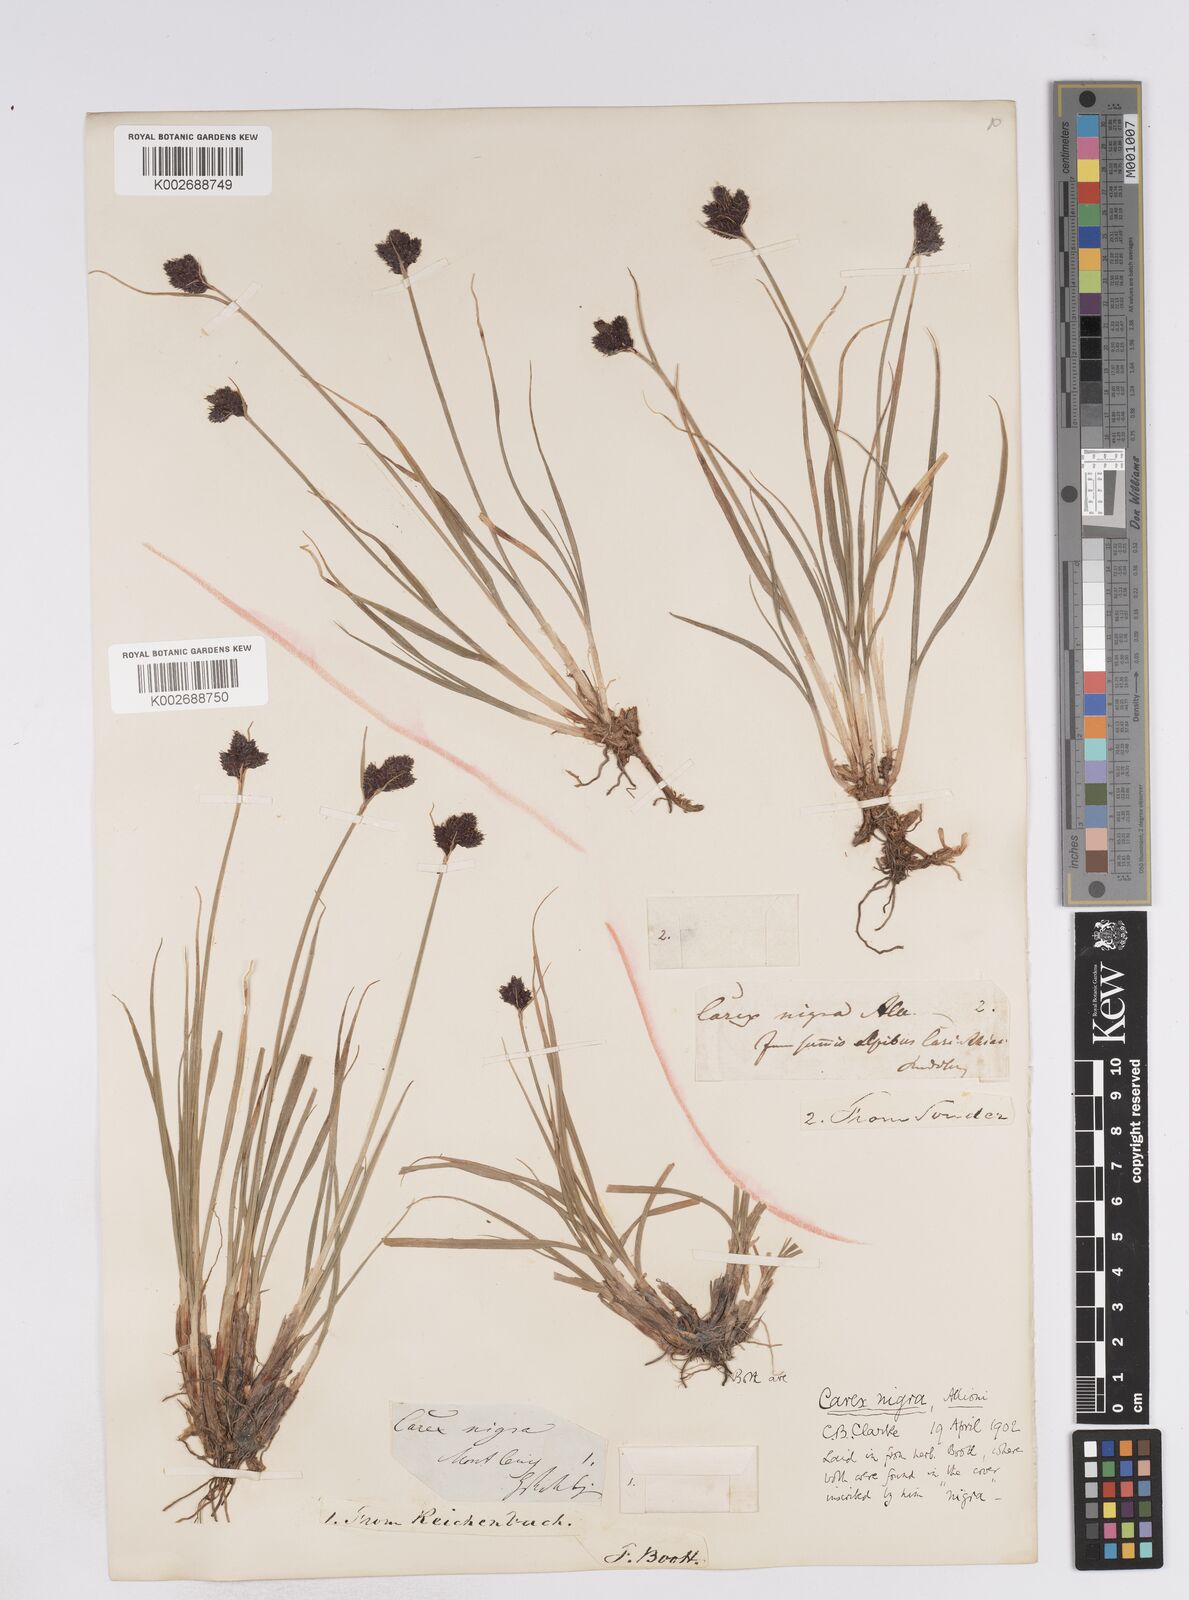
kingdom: Plantae
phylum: Tracheophyta
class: Liliopsida
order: Poales
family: Cyperaceae
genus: Carex
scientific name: Carex parviflora
